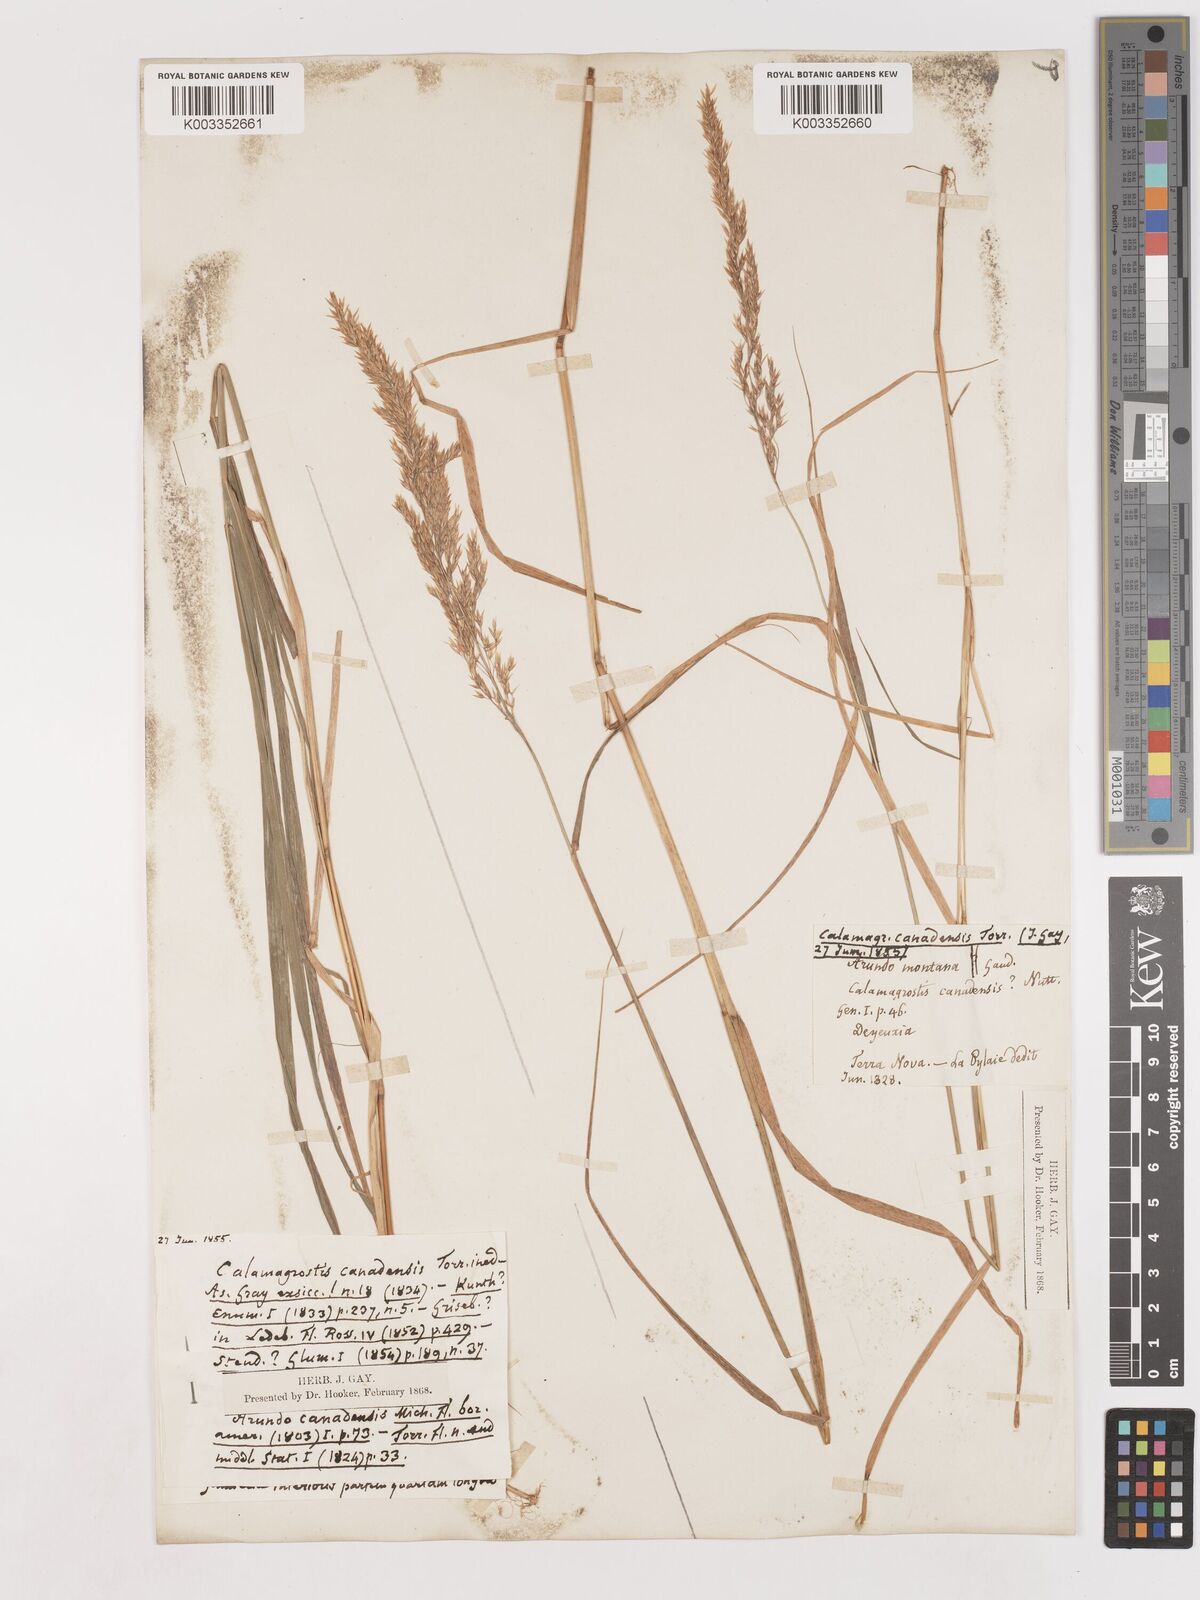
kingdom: Plantae
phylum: Tracheophyta
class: Liliopsida
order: Poales
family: Poaceae
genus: Calamagrostis
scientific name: Calamagrostis canadensis
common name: Canada bluejoint
